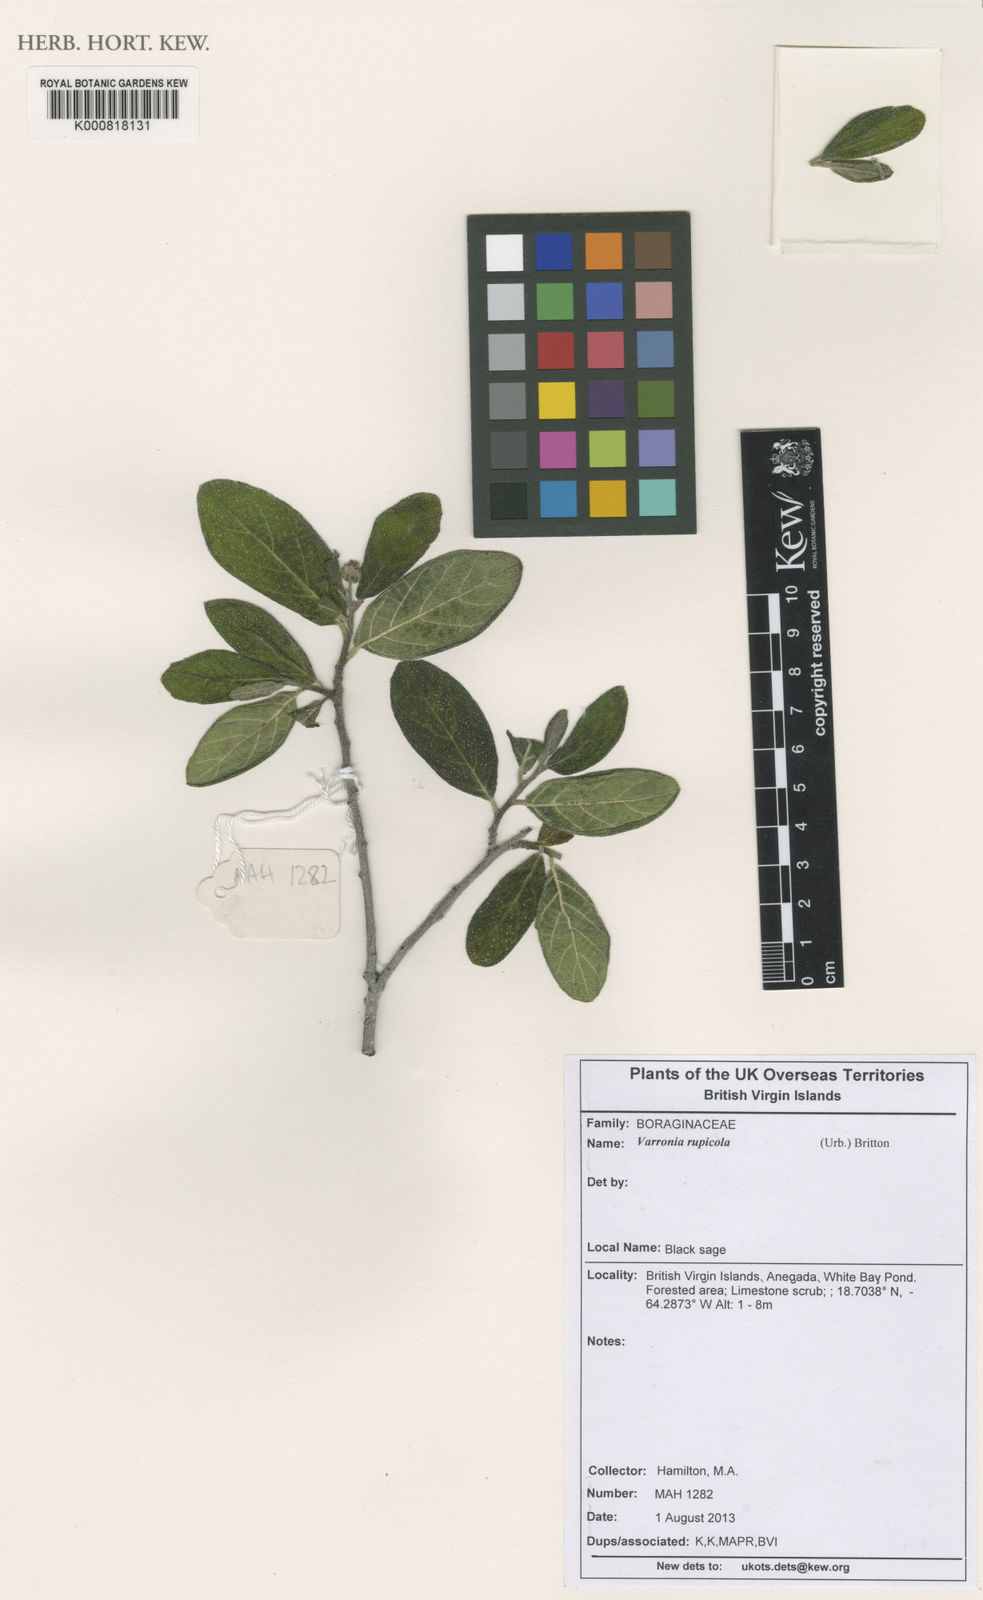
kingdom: Plantae
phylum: Tracheophyta
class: Magnoliopsida
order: Boraginales
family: Cordiaceae
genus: Varronia
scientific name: Varronia rupicola
